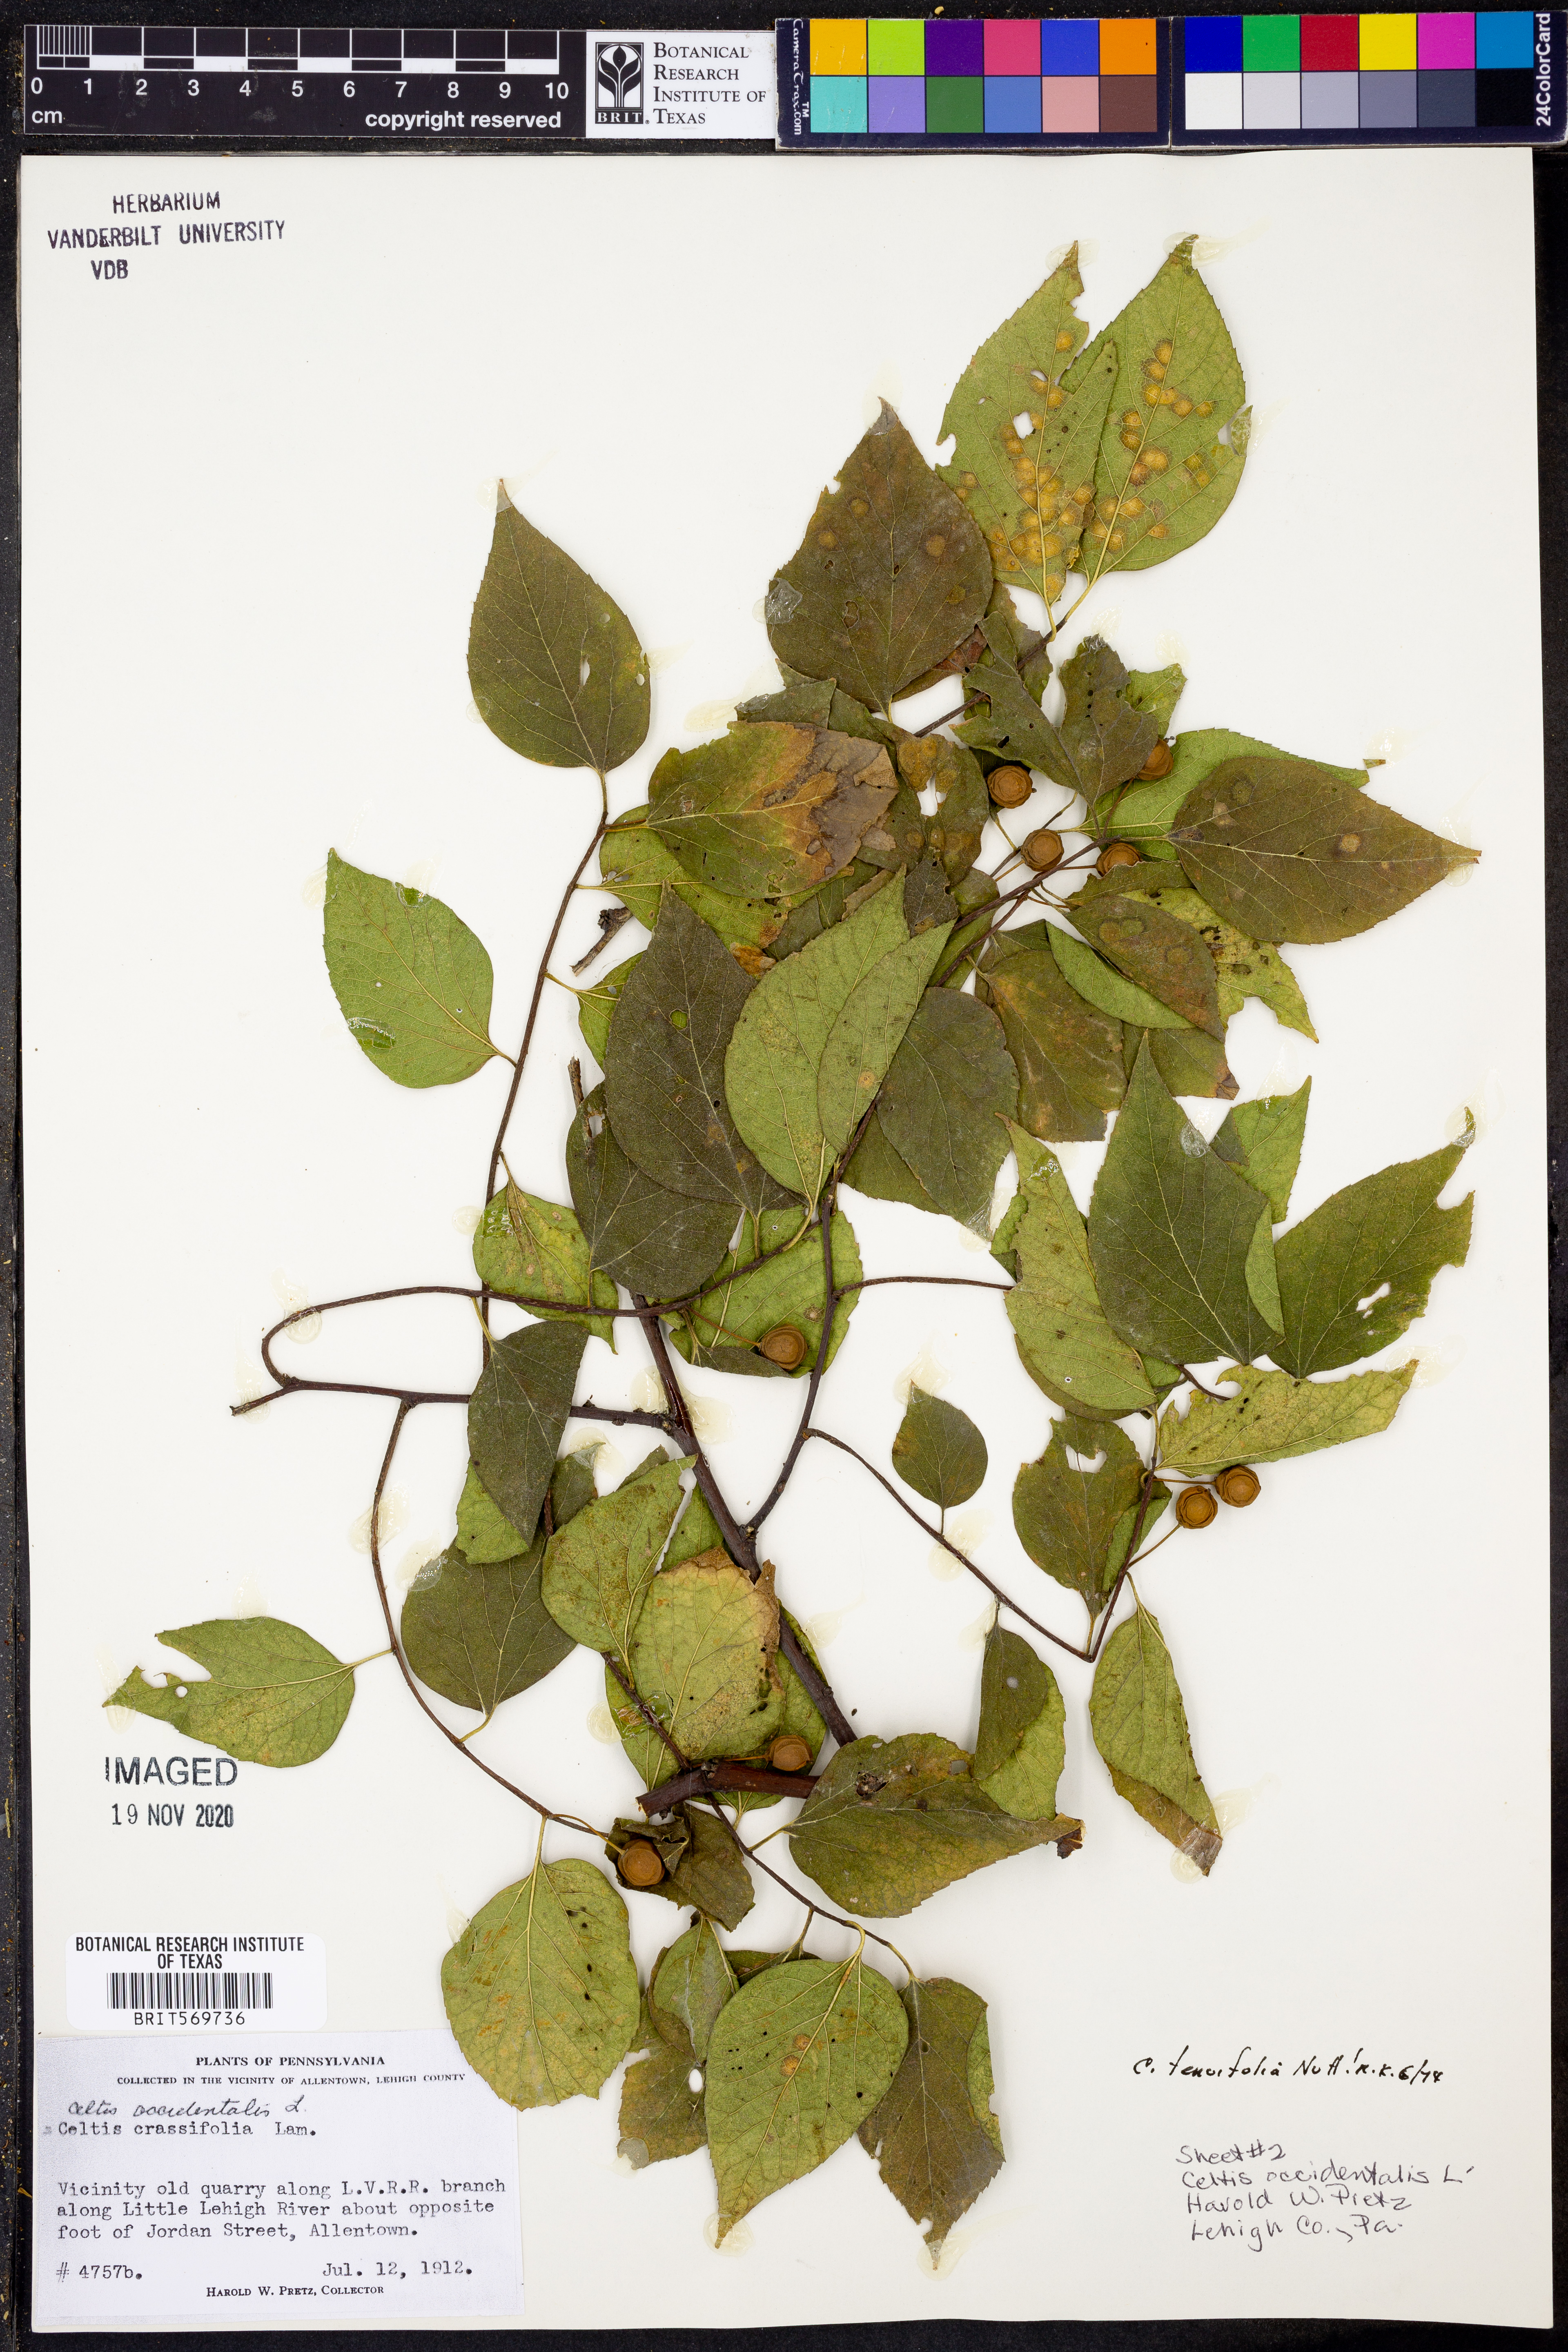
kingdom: Plantae
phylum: Tracheophyta
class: Magnoliopsida
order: Rosales
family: Cannabaceae
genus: Celtis
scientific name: Celtis occidentalis
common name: Common hackberry
